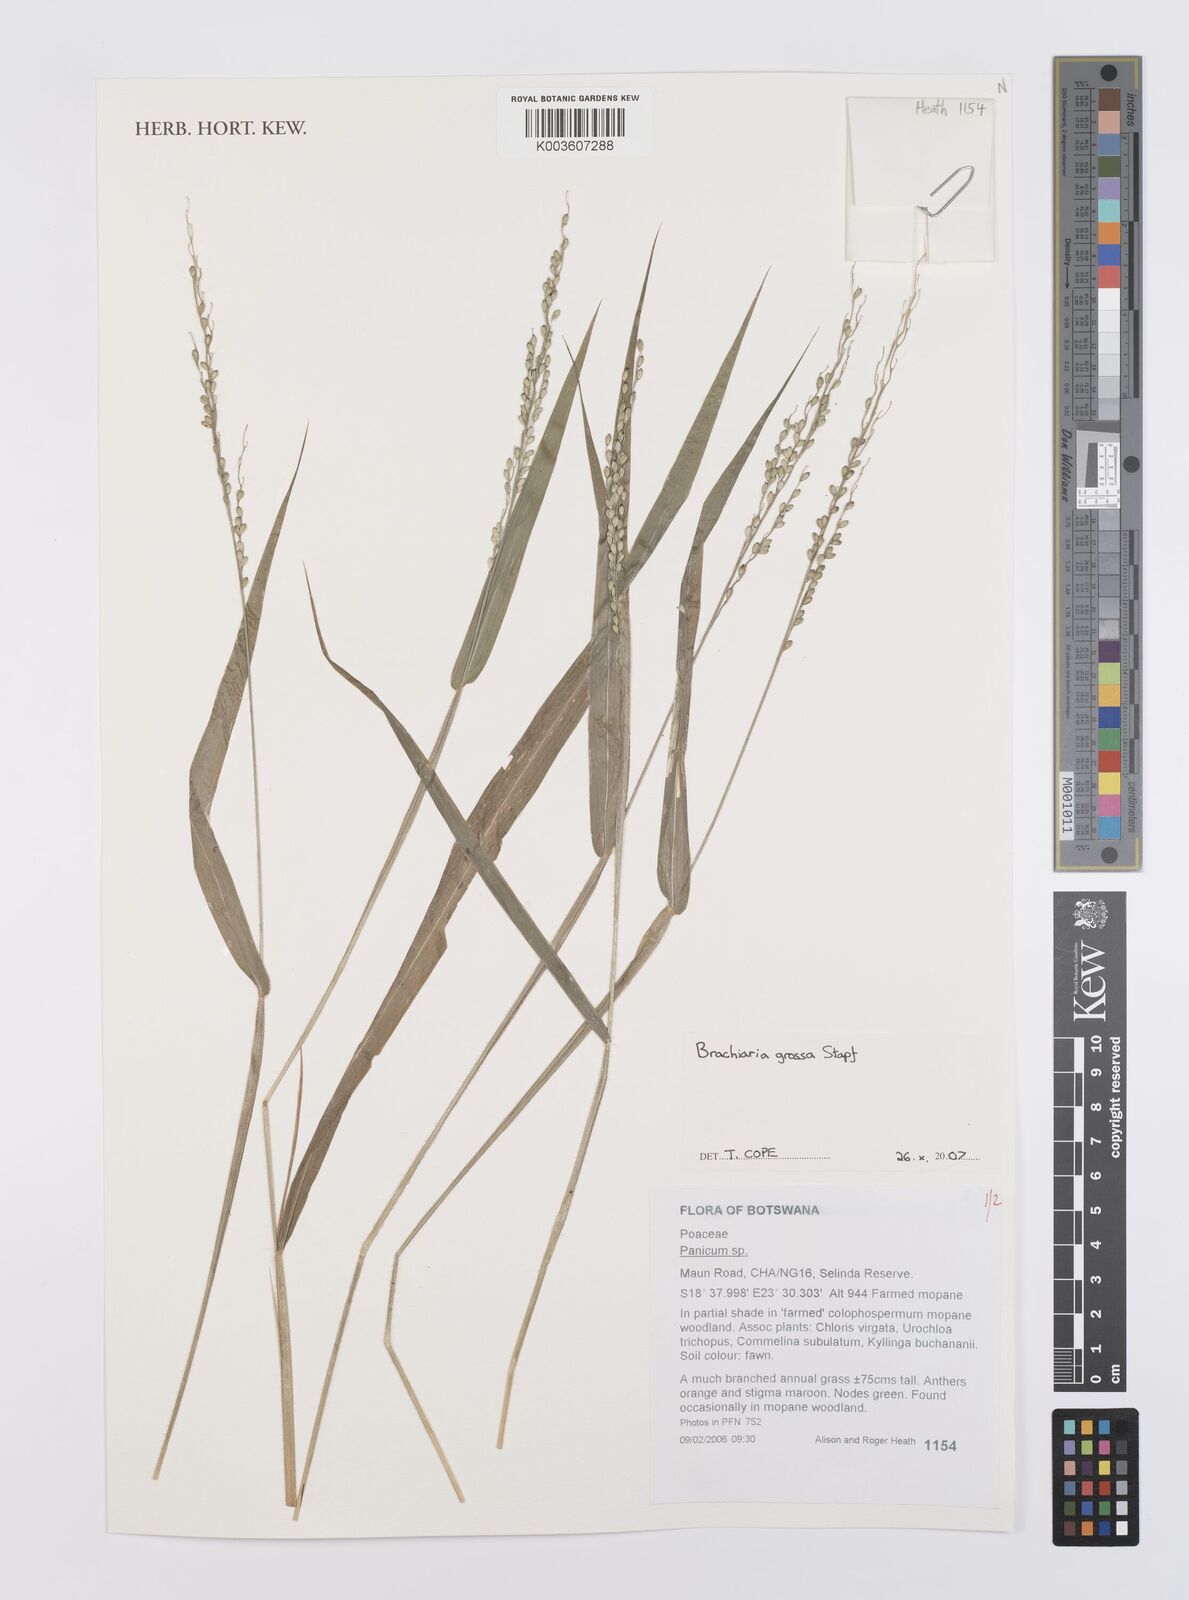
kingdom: Plantae
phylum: Tracheophyta
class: Liliopsida
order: Poales
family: Poaceae
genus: Urochloa
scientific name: Urochloa Brachiaria grossa
